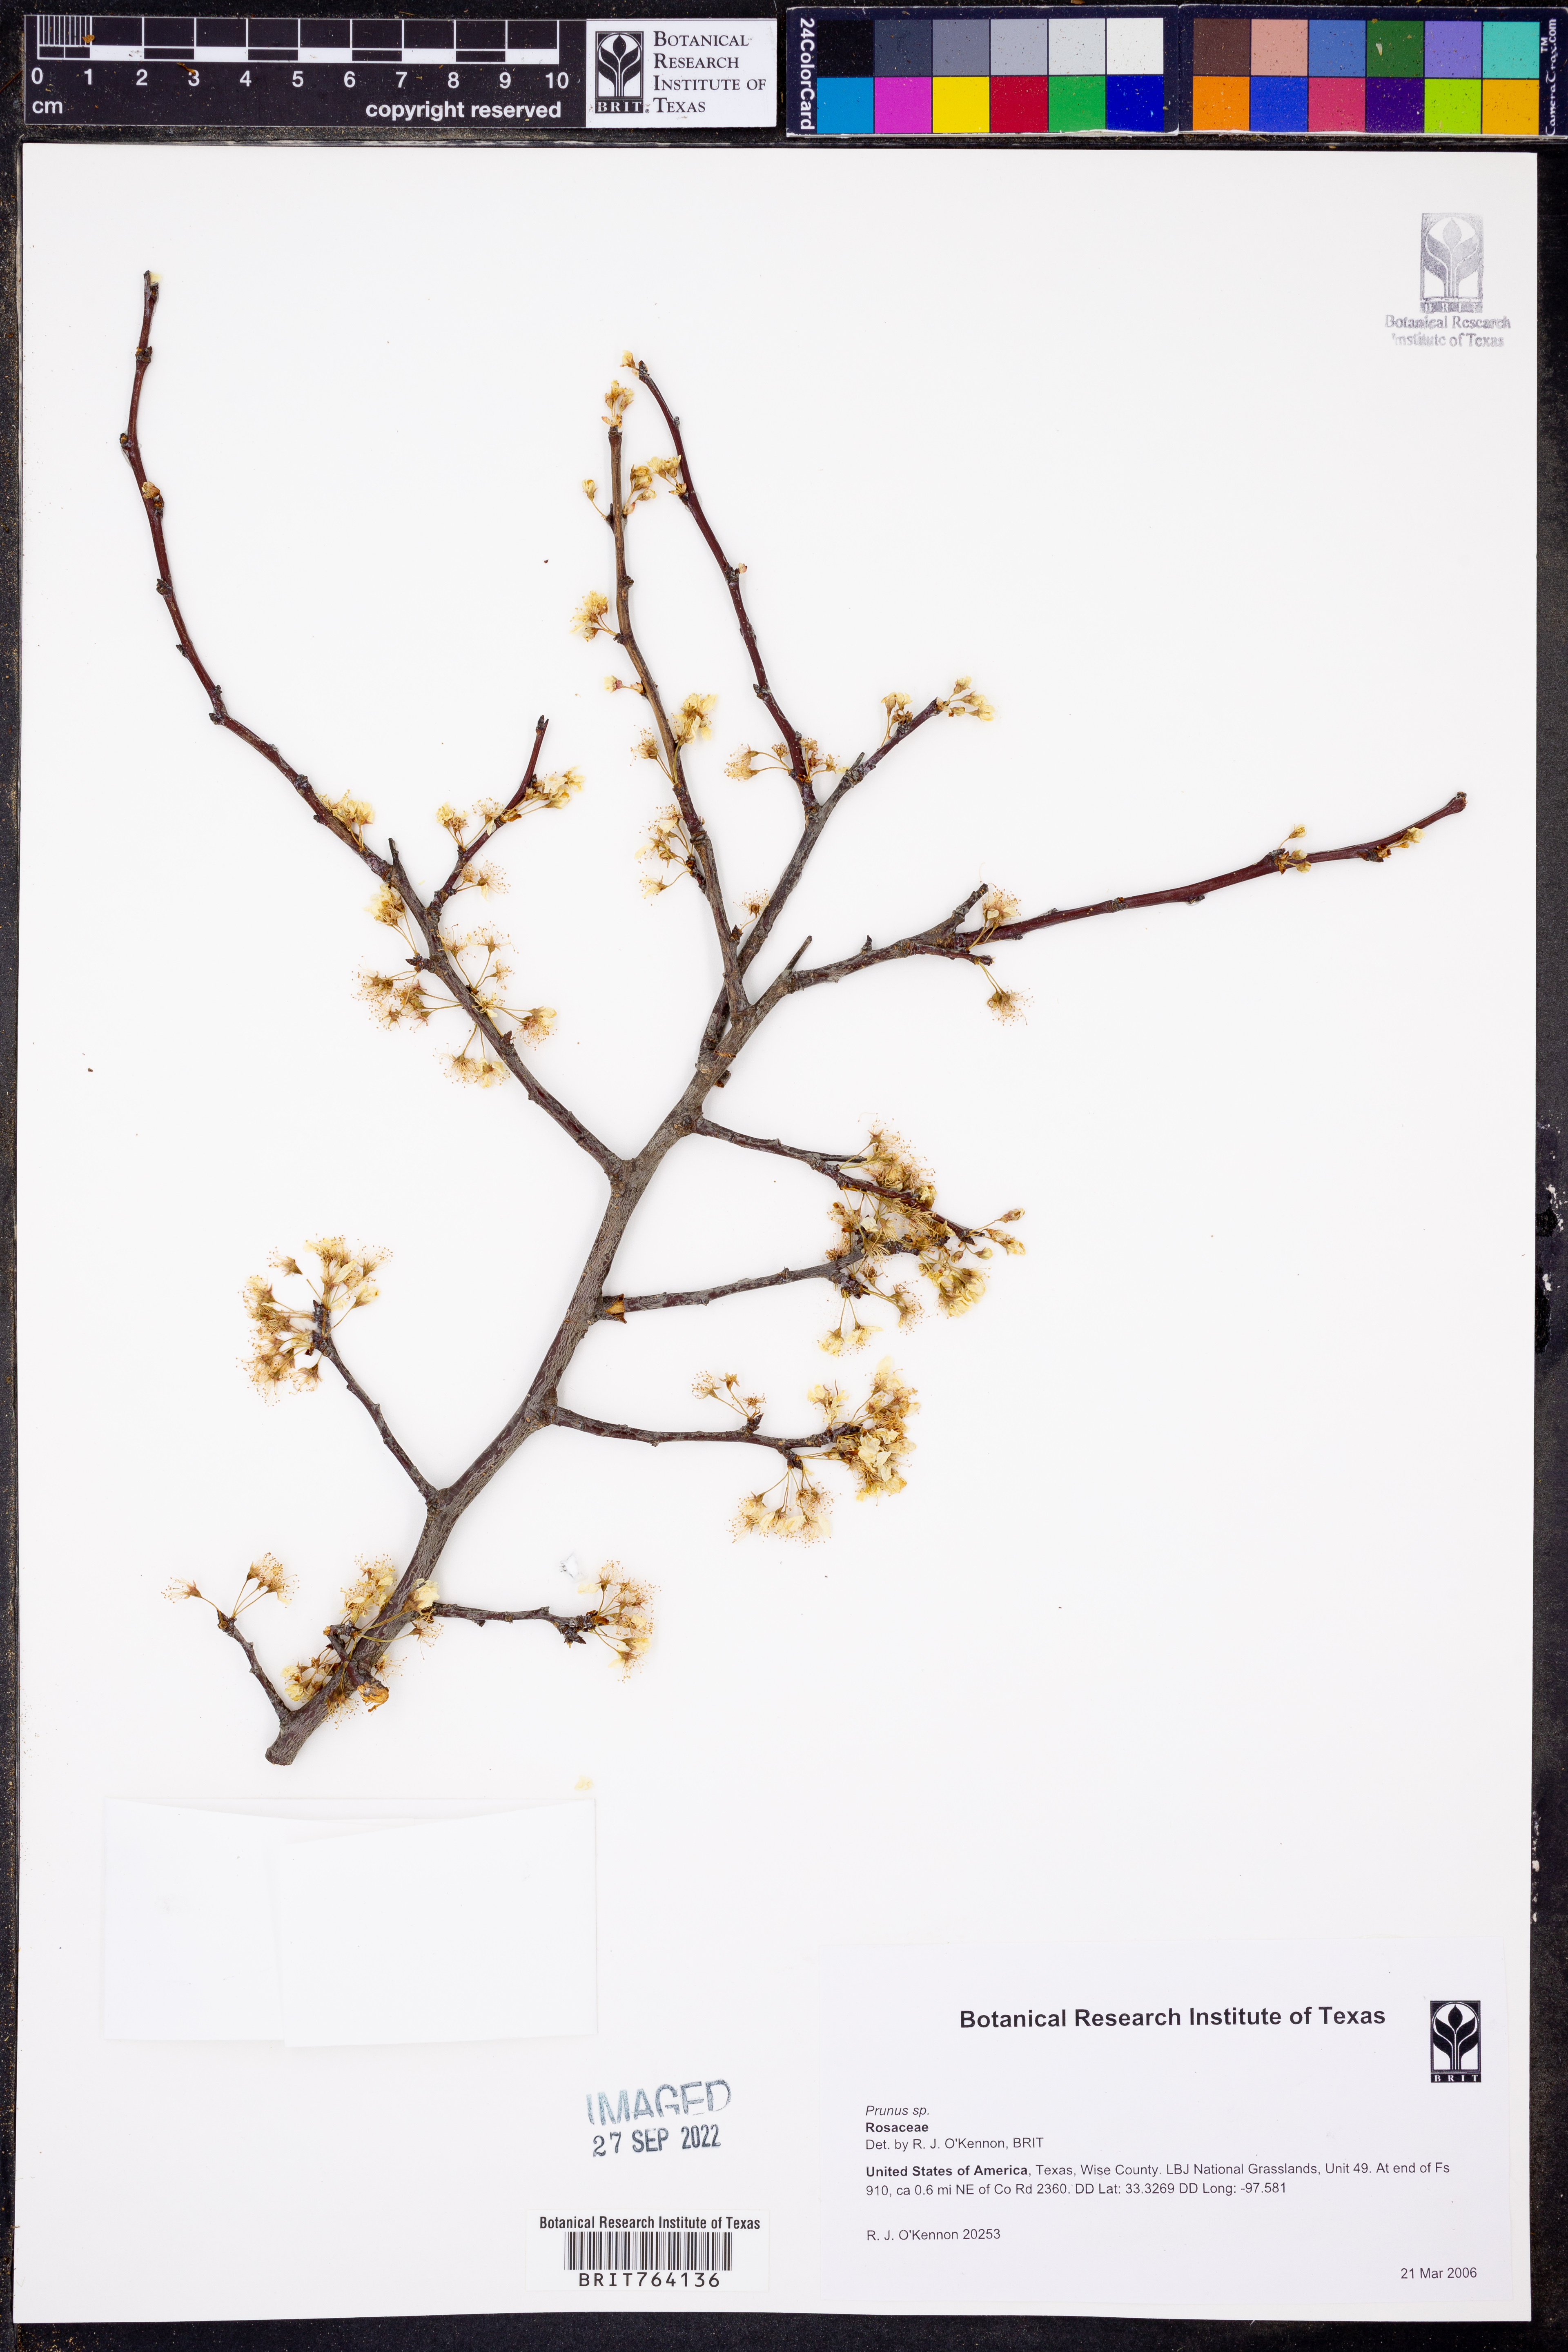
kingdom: Plantae
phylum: Tracheophyta
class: Magnoliopsida
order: Rosales
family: Rosaceae
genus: Prunus
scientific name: Prunus
